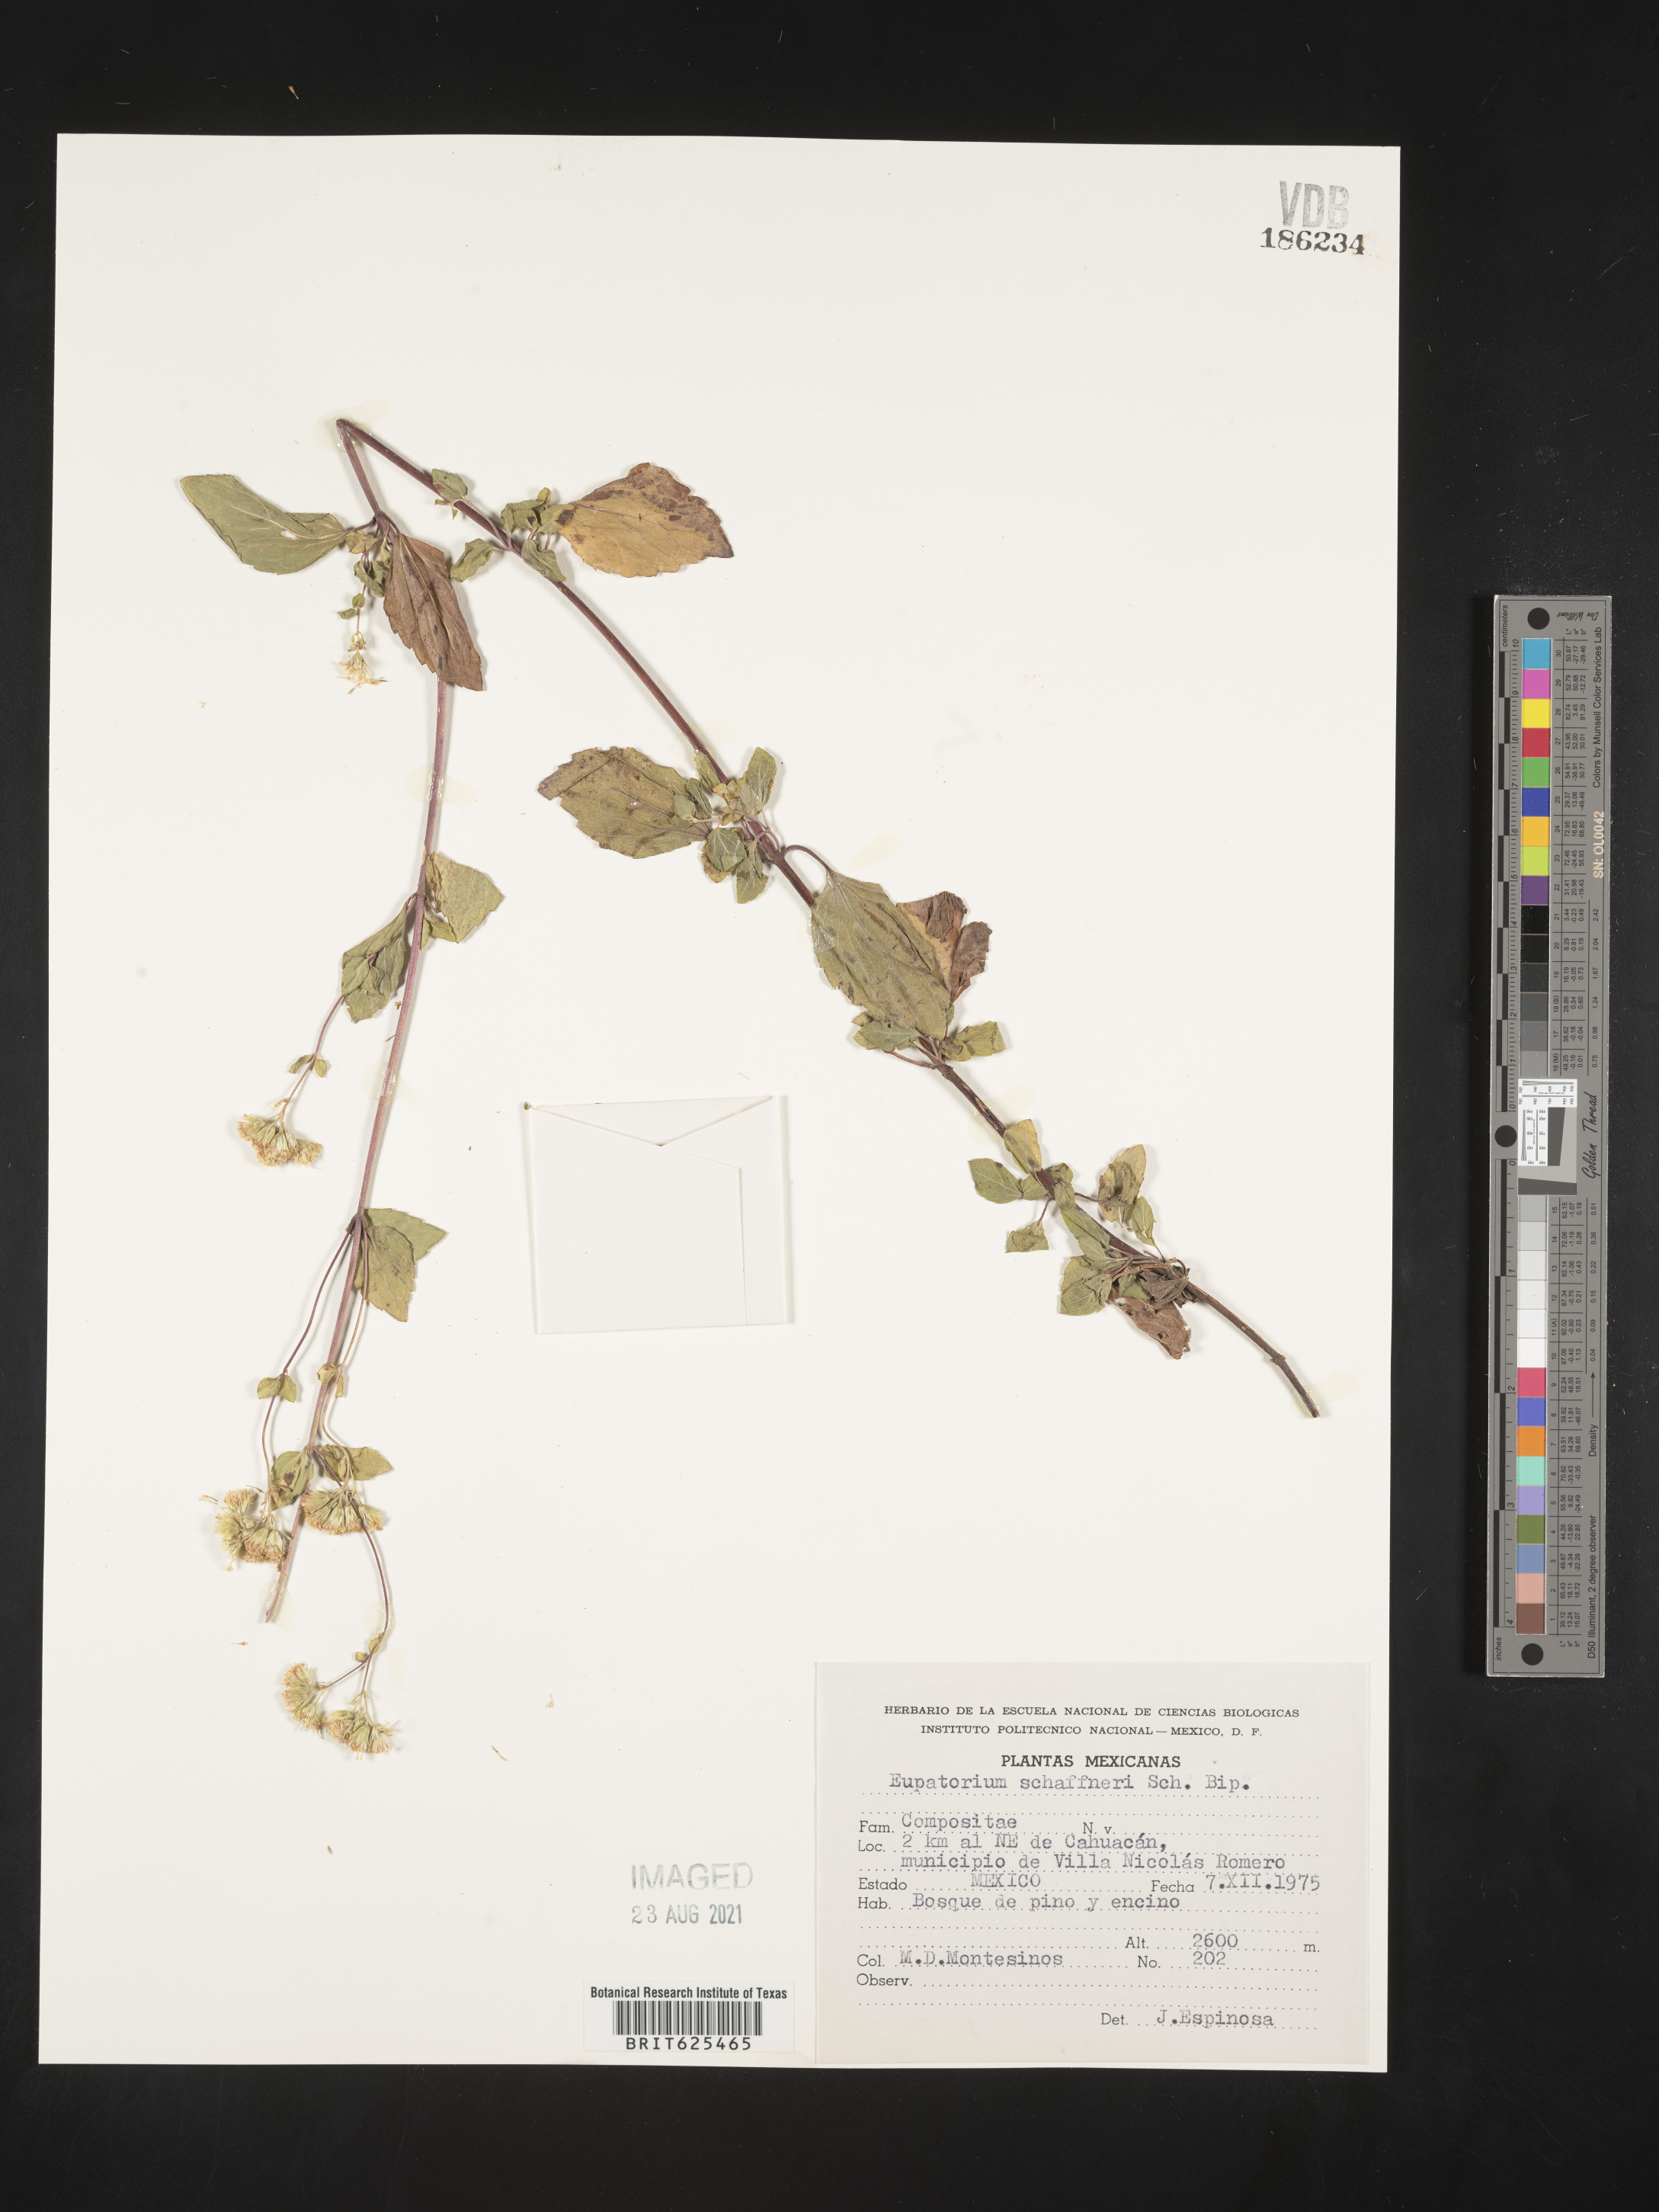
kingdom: Plantae
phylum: Tracheophyta
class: Magnoliopsida
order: Asterales
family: Asteraceae
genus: Eupatorium
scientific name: Eupatorium
